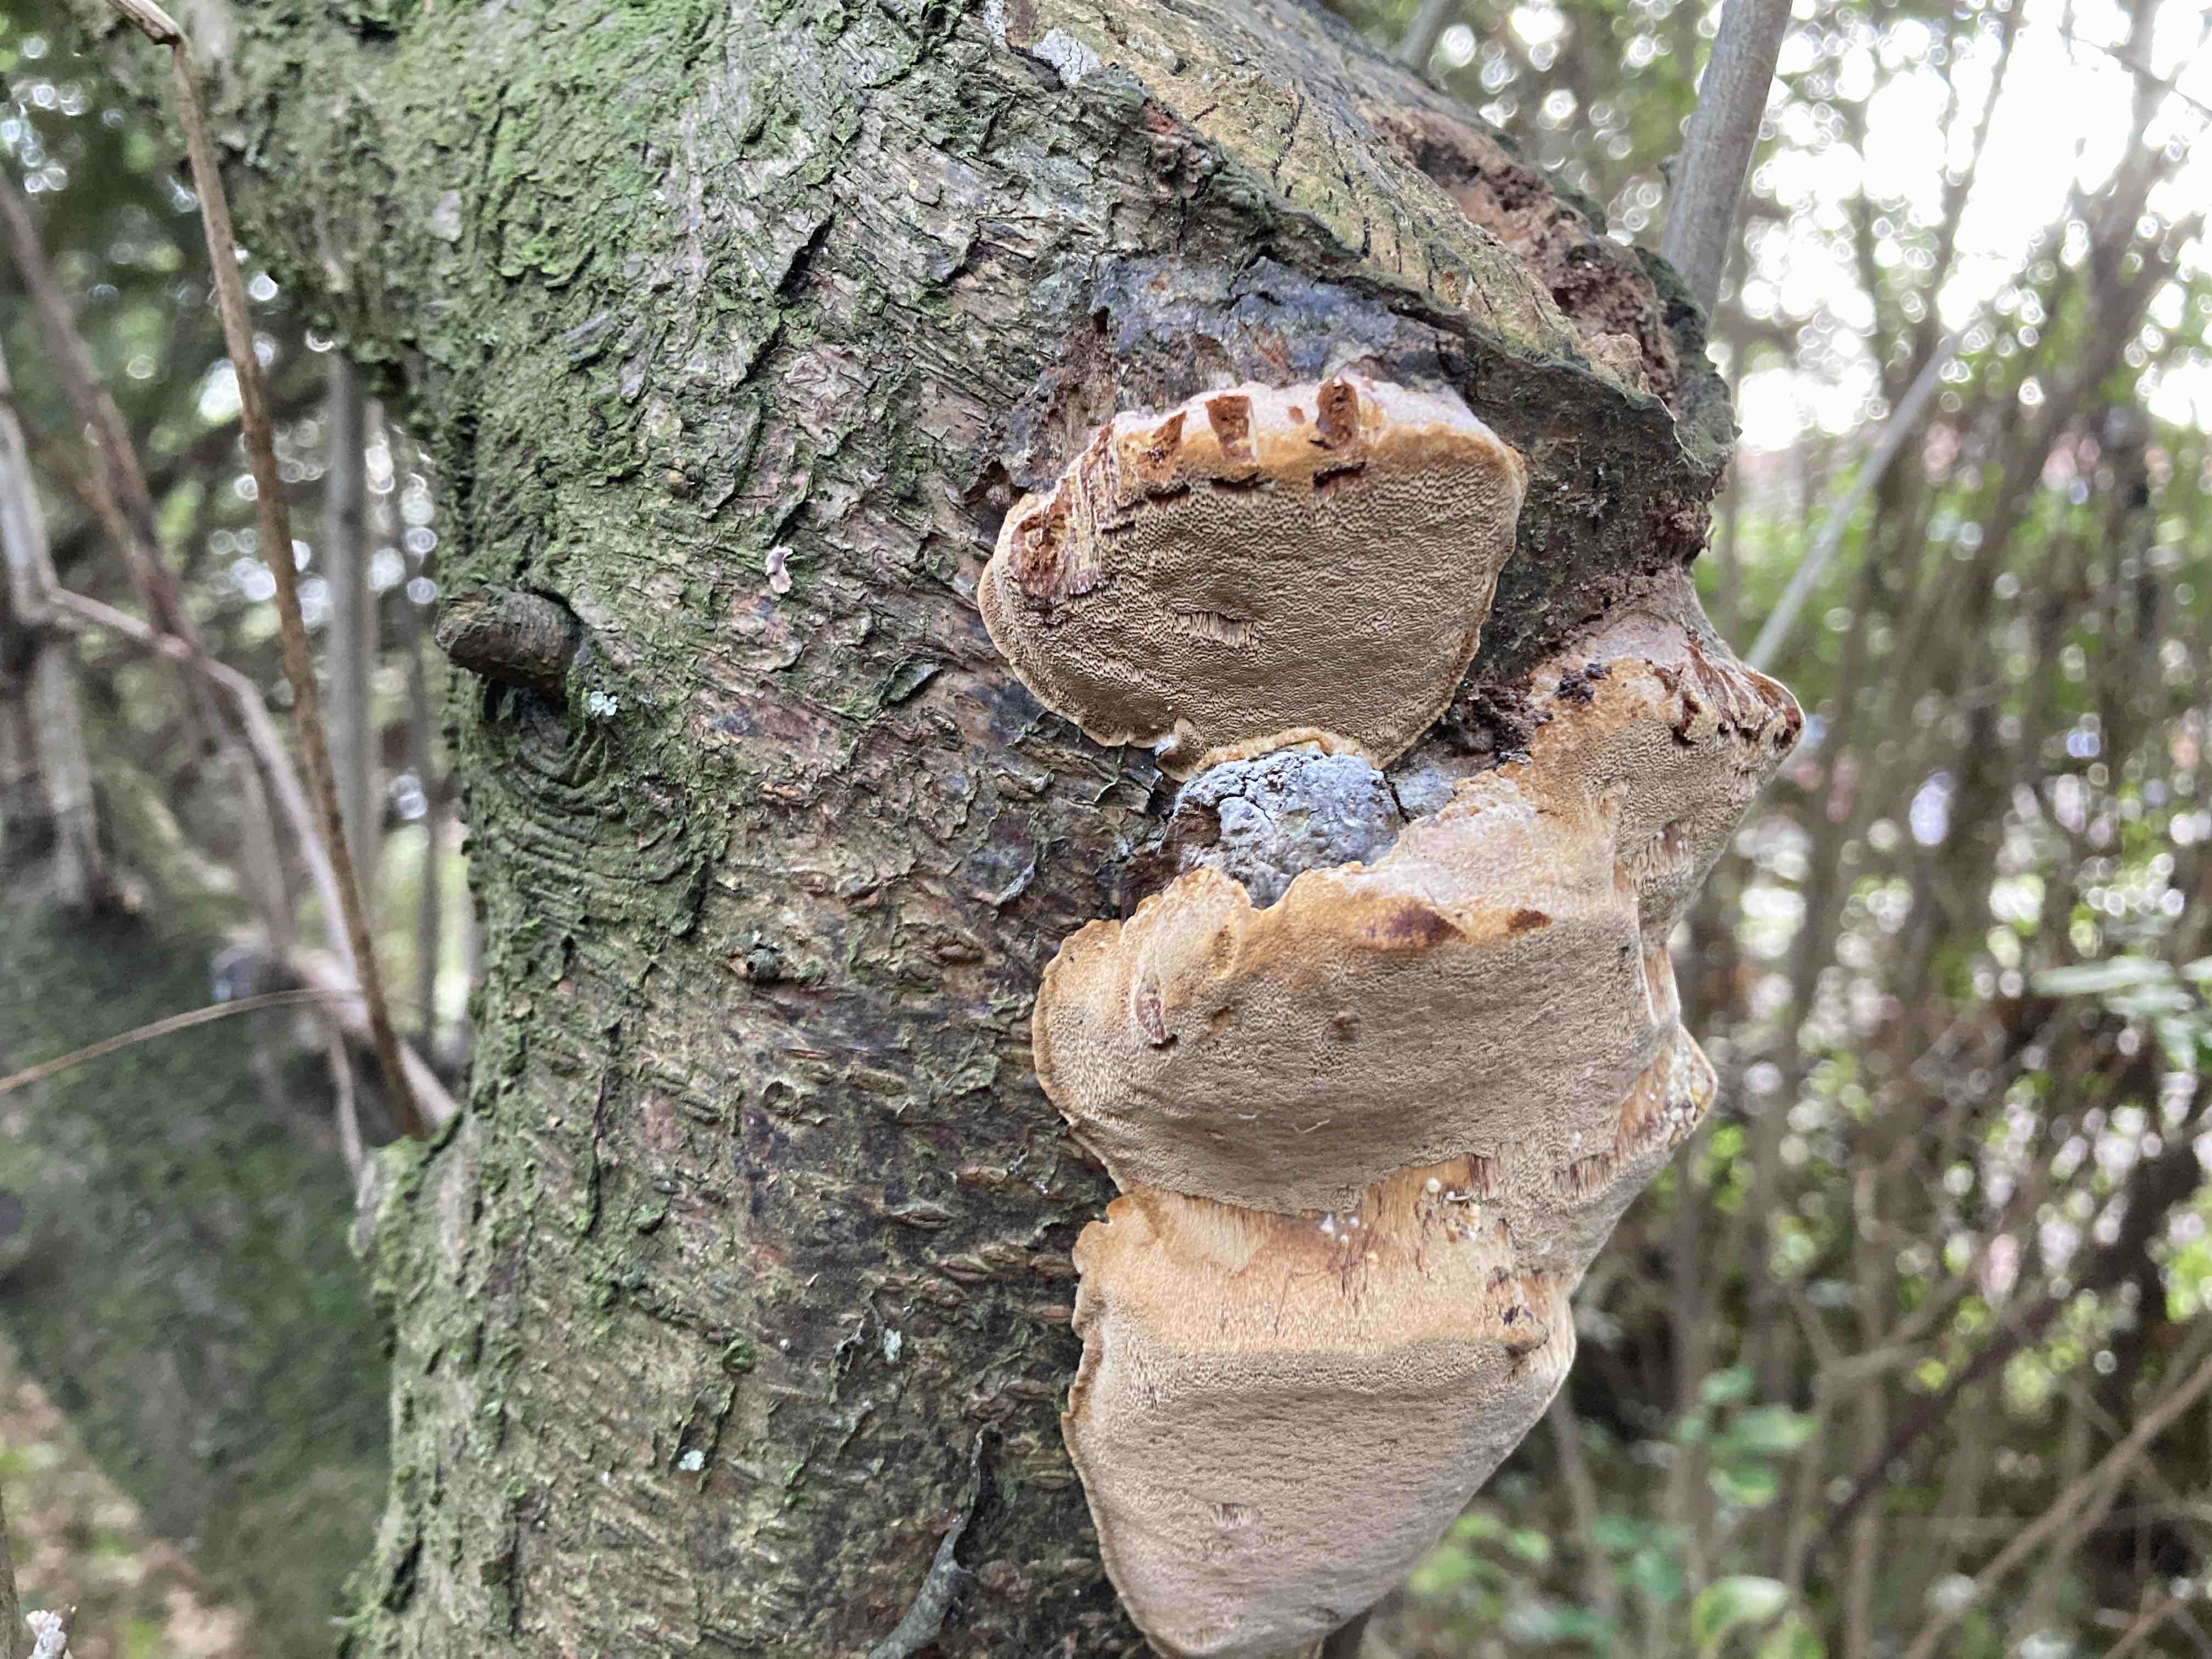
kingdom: Fungi
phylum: Basidiomycota
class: Agaricomycetes
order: Hymenochaetales
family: Hymenochaetaceae
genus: Phellinus
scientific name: Phellinus pomaceus
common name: blomme-ildporesvamp
